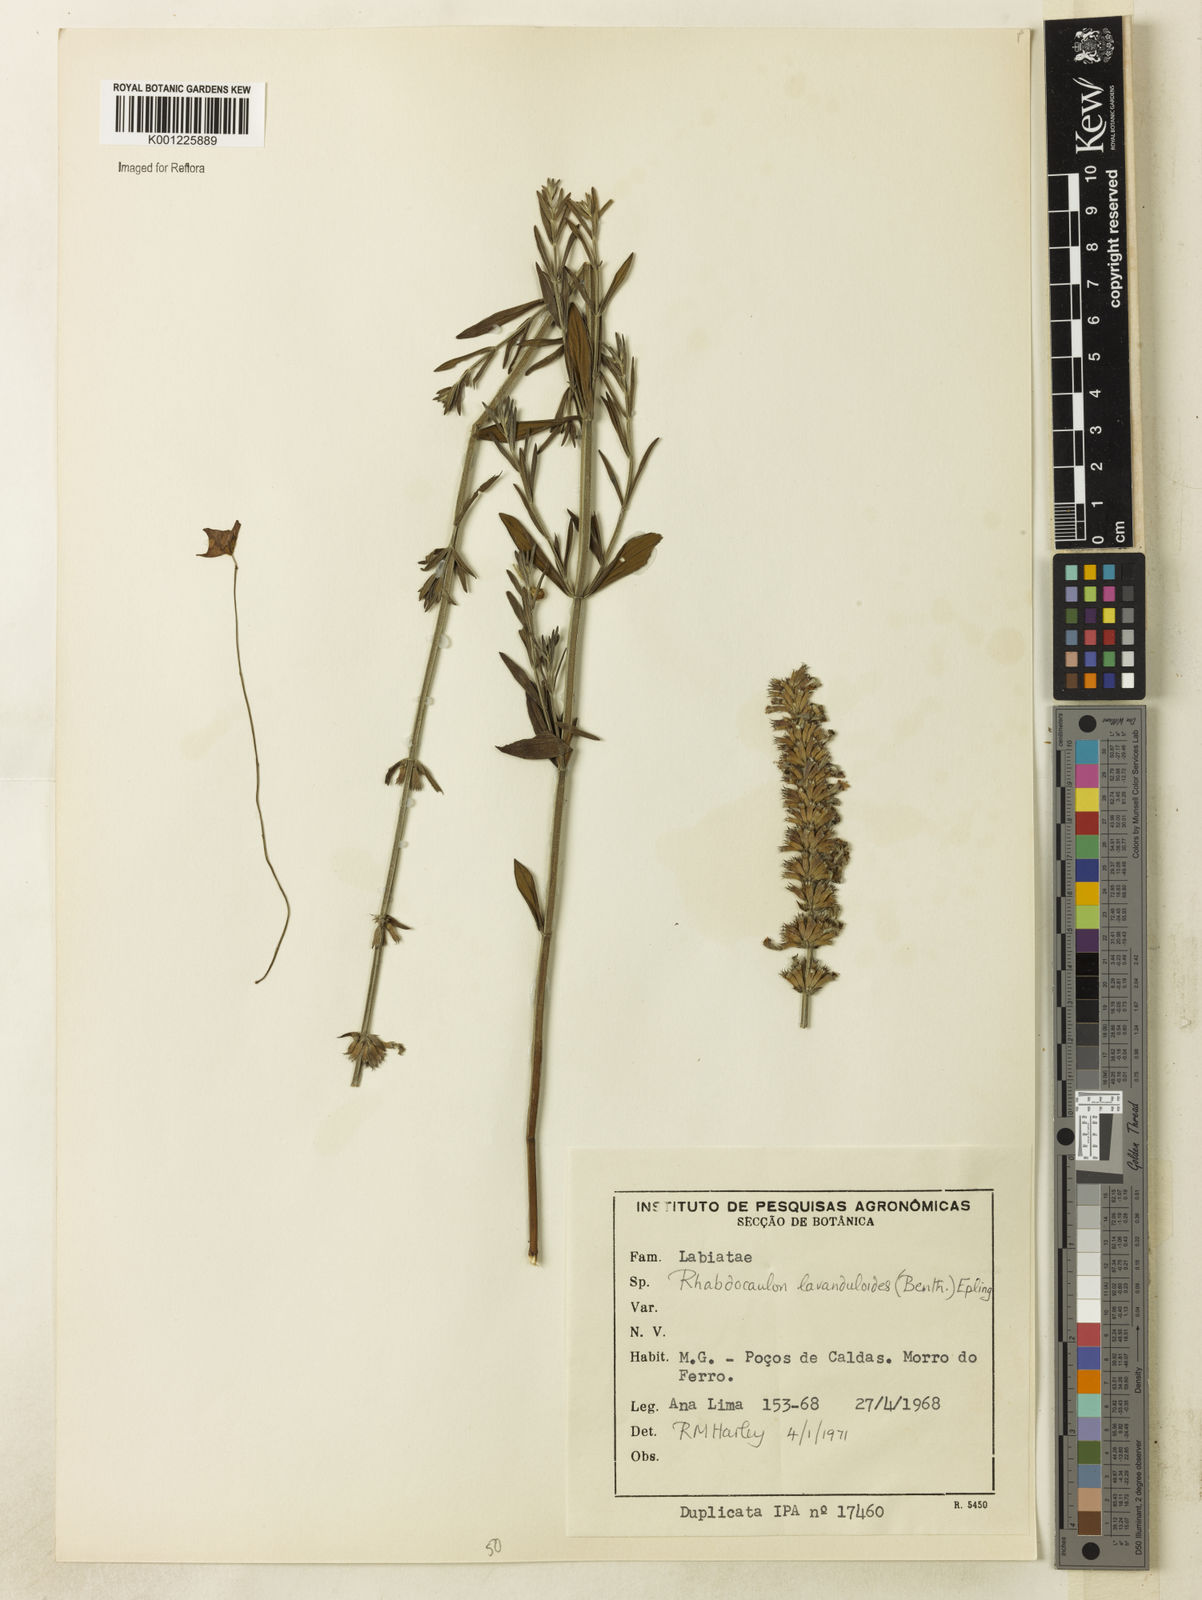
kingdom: Plantae
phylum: Tracheophyta
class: Magnoliopsida
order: Lamiales
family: Lamiaceae
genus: Rhabdocaulon
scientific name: Rhabdocaulon lavanduloides
